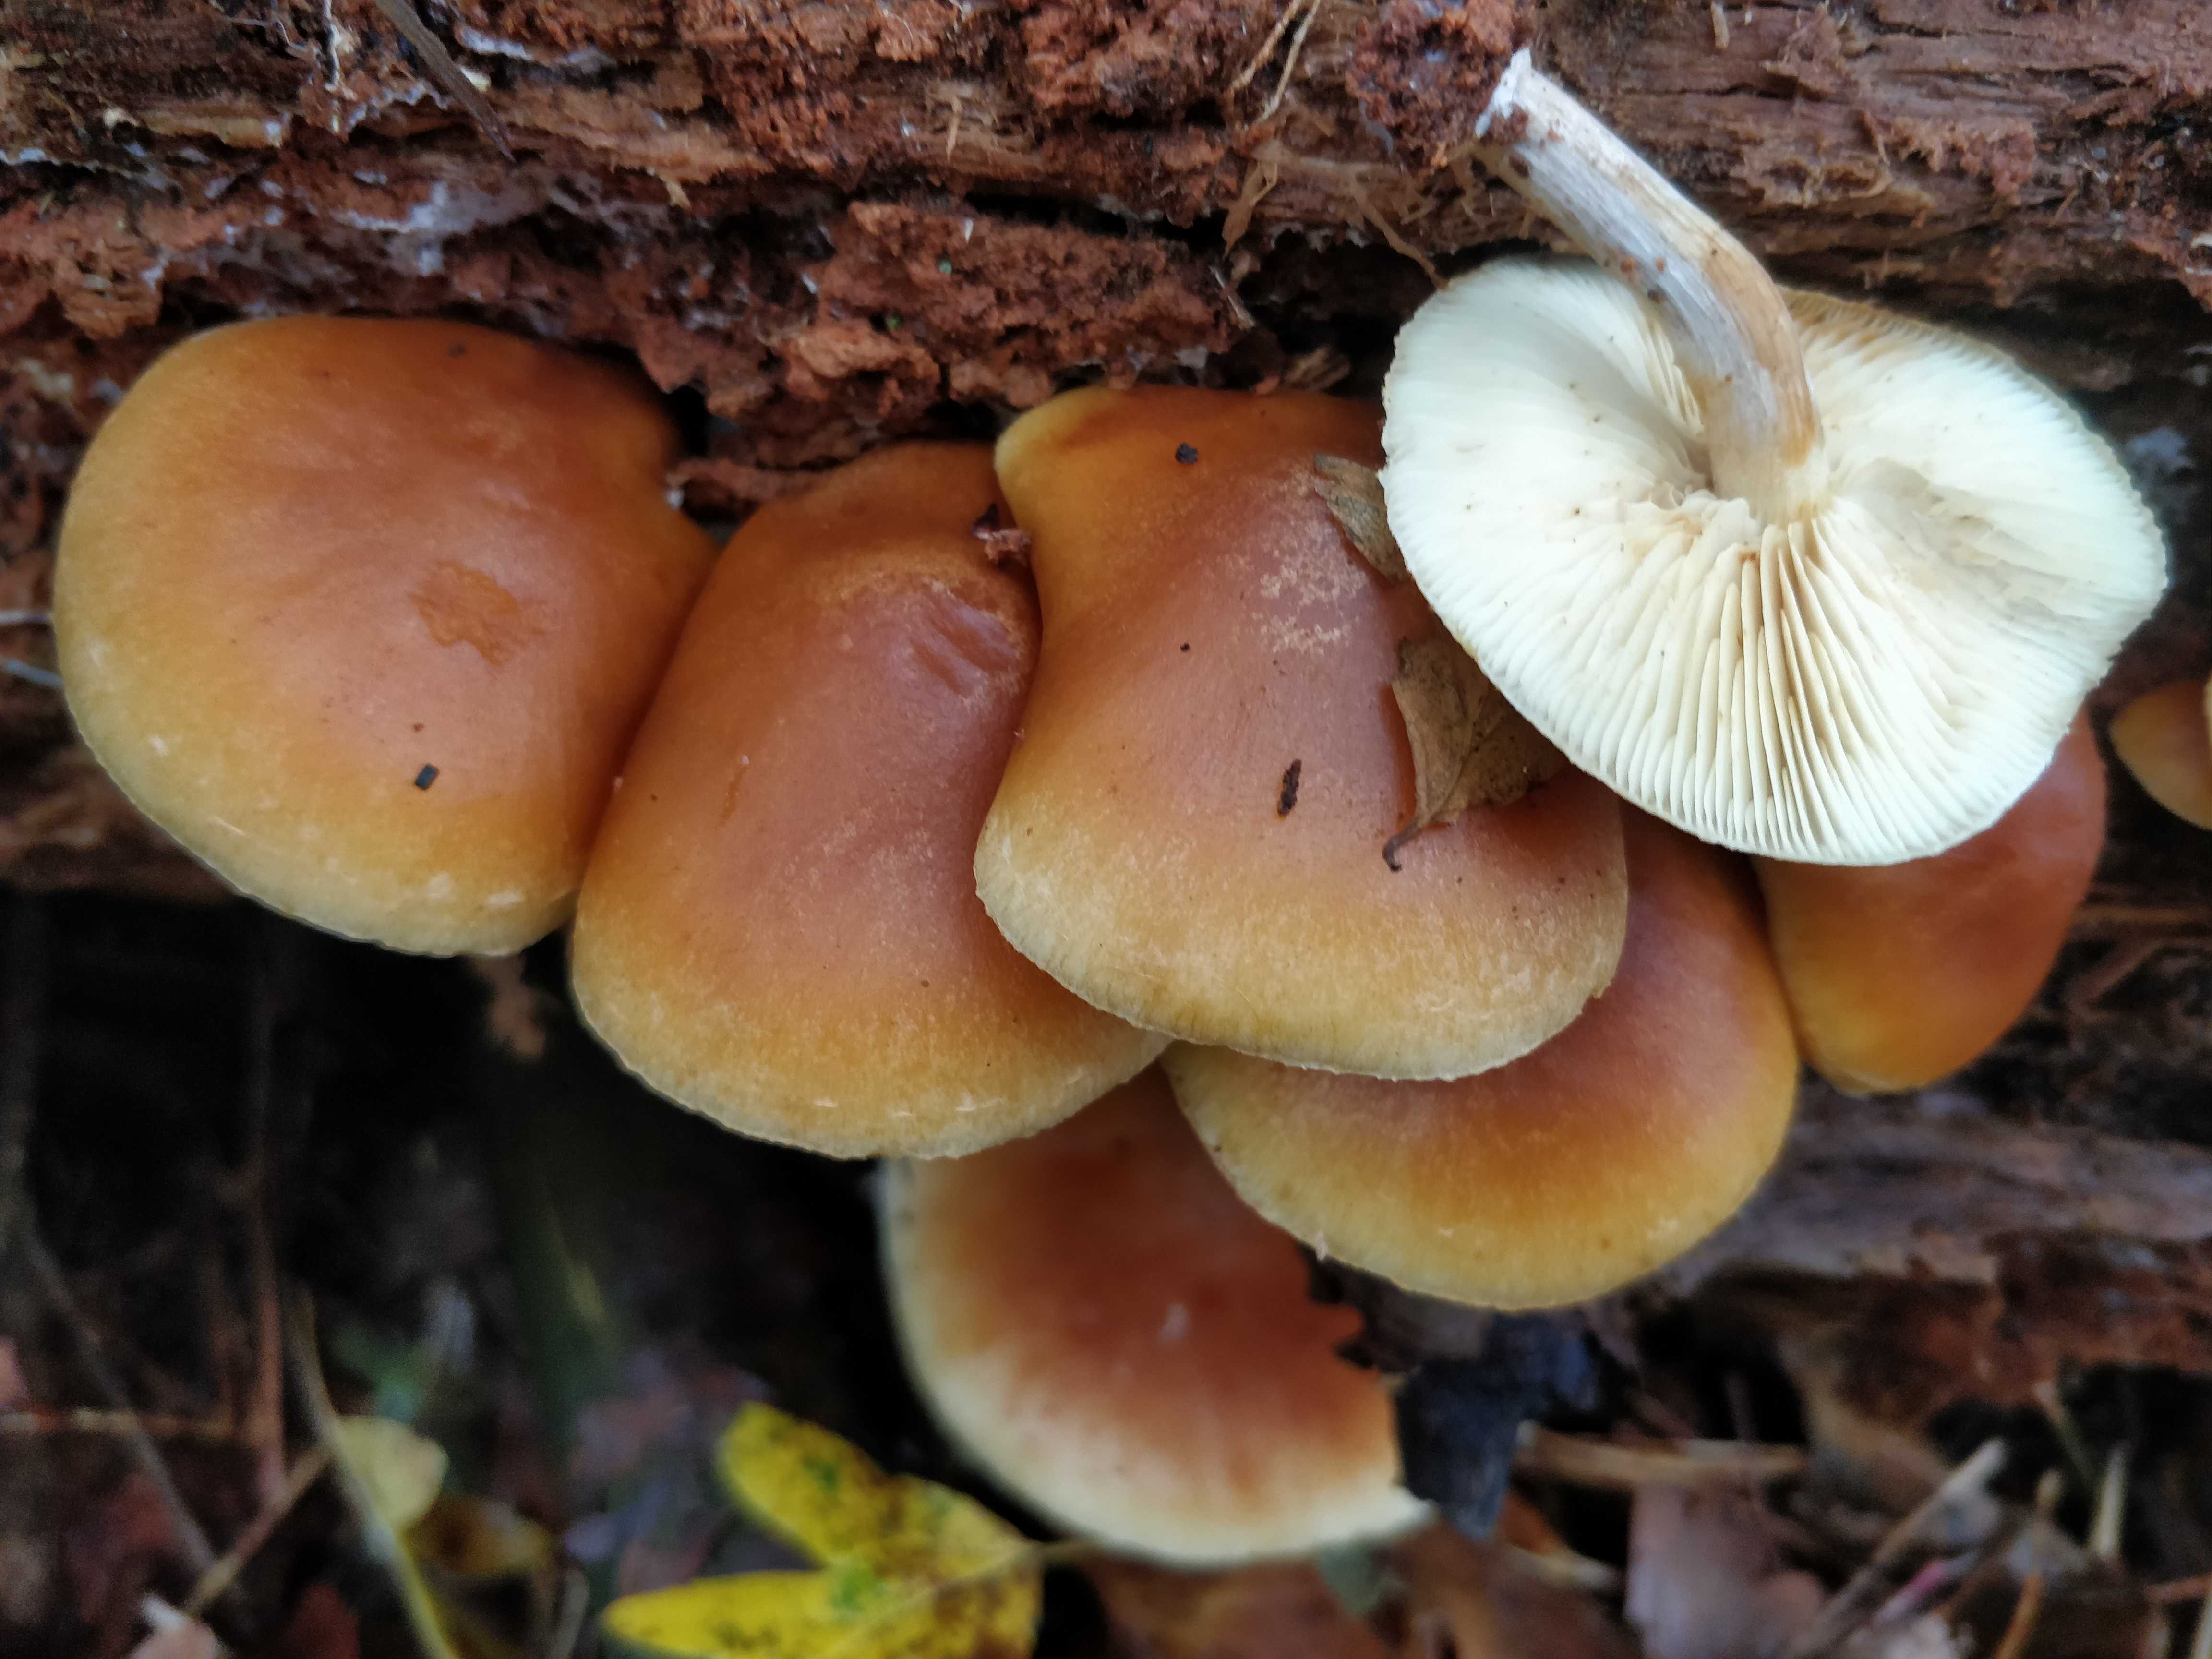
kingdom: Fungi
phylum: Basidiomycota
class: Agaricomycetes
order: Agaricales
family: Hymenogastraceae
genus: Gymnopilus
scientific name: Gymnopilus penetrans
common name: plettet flammehat
